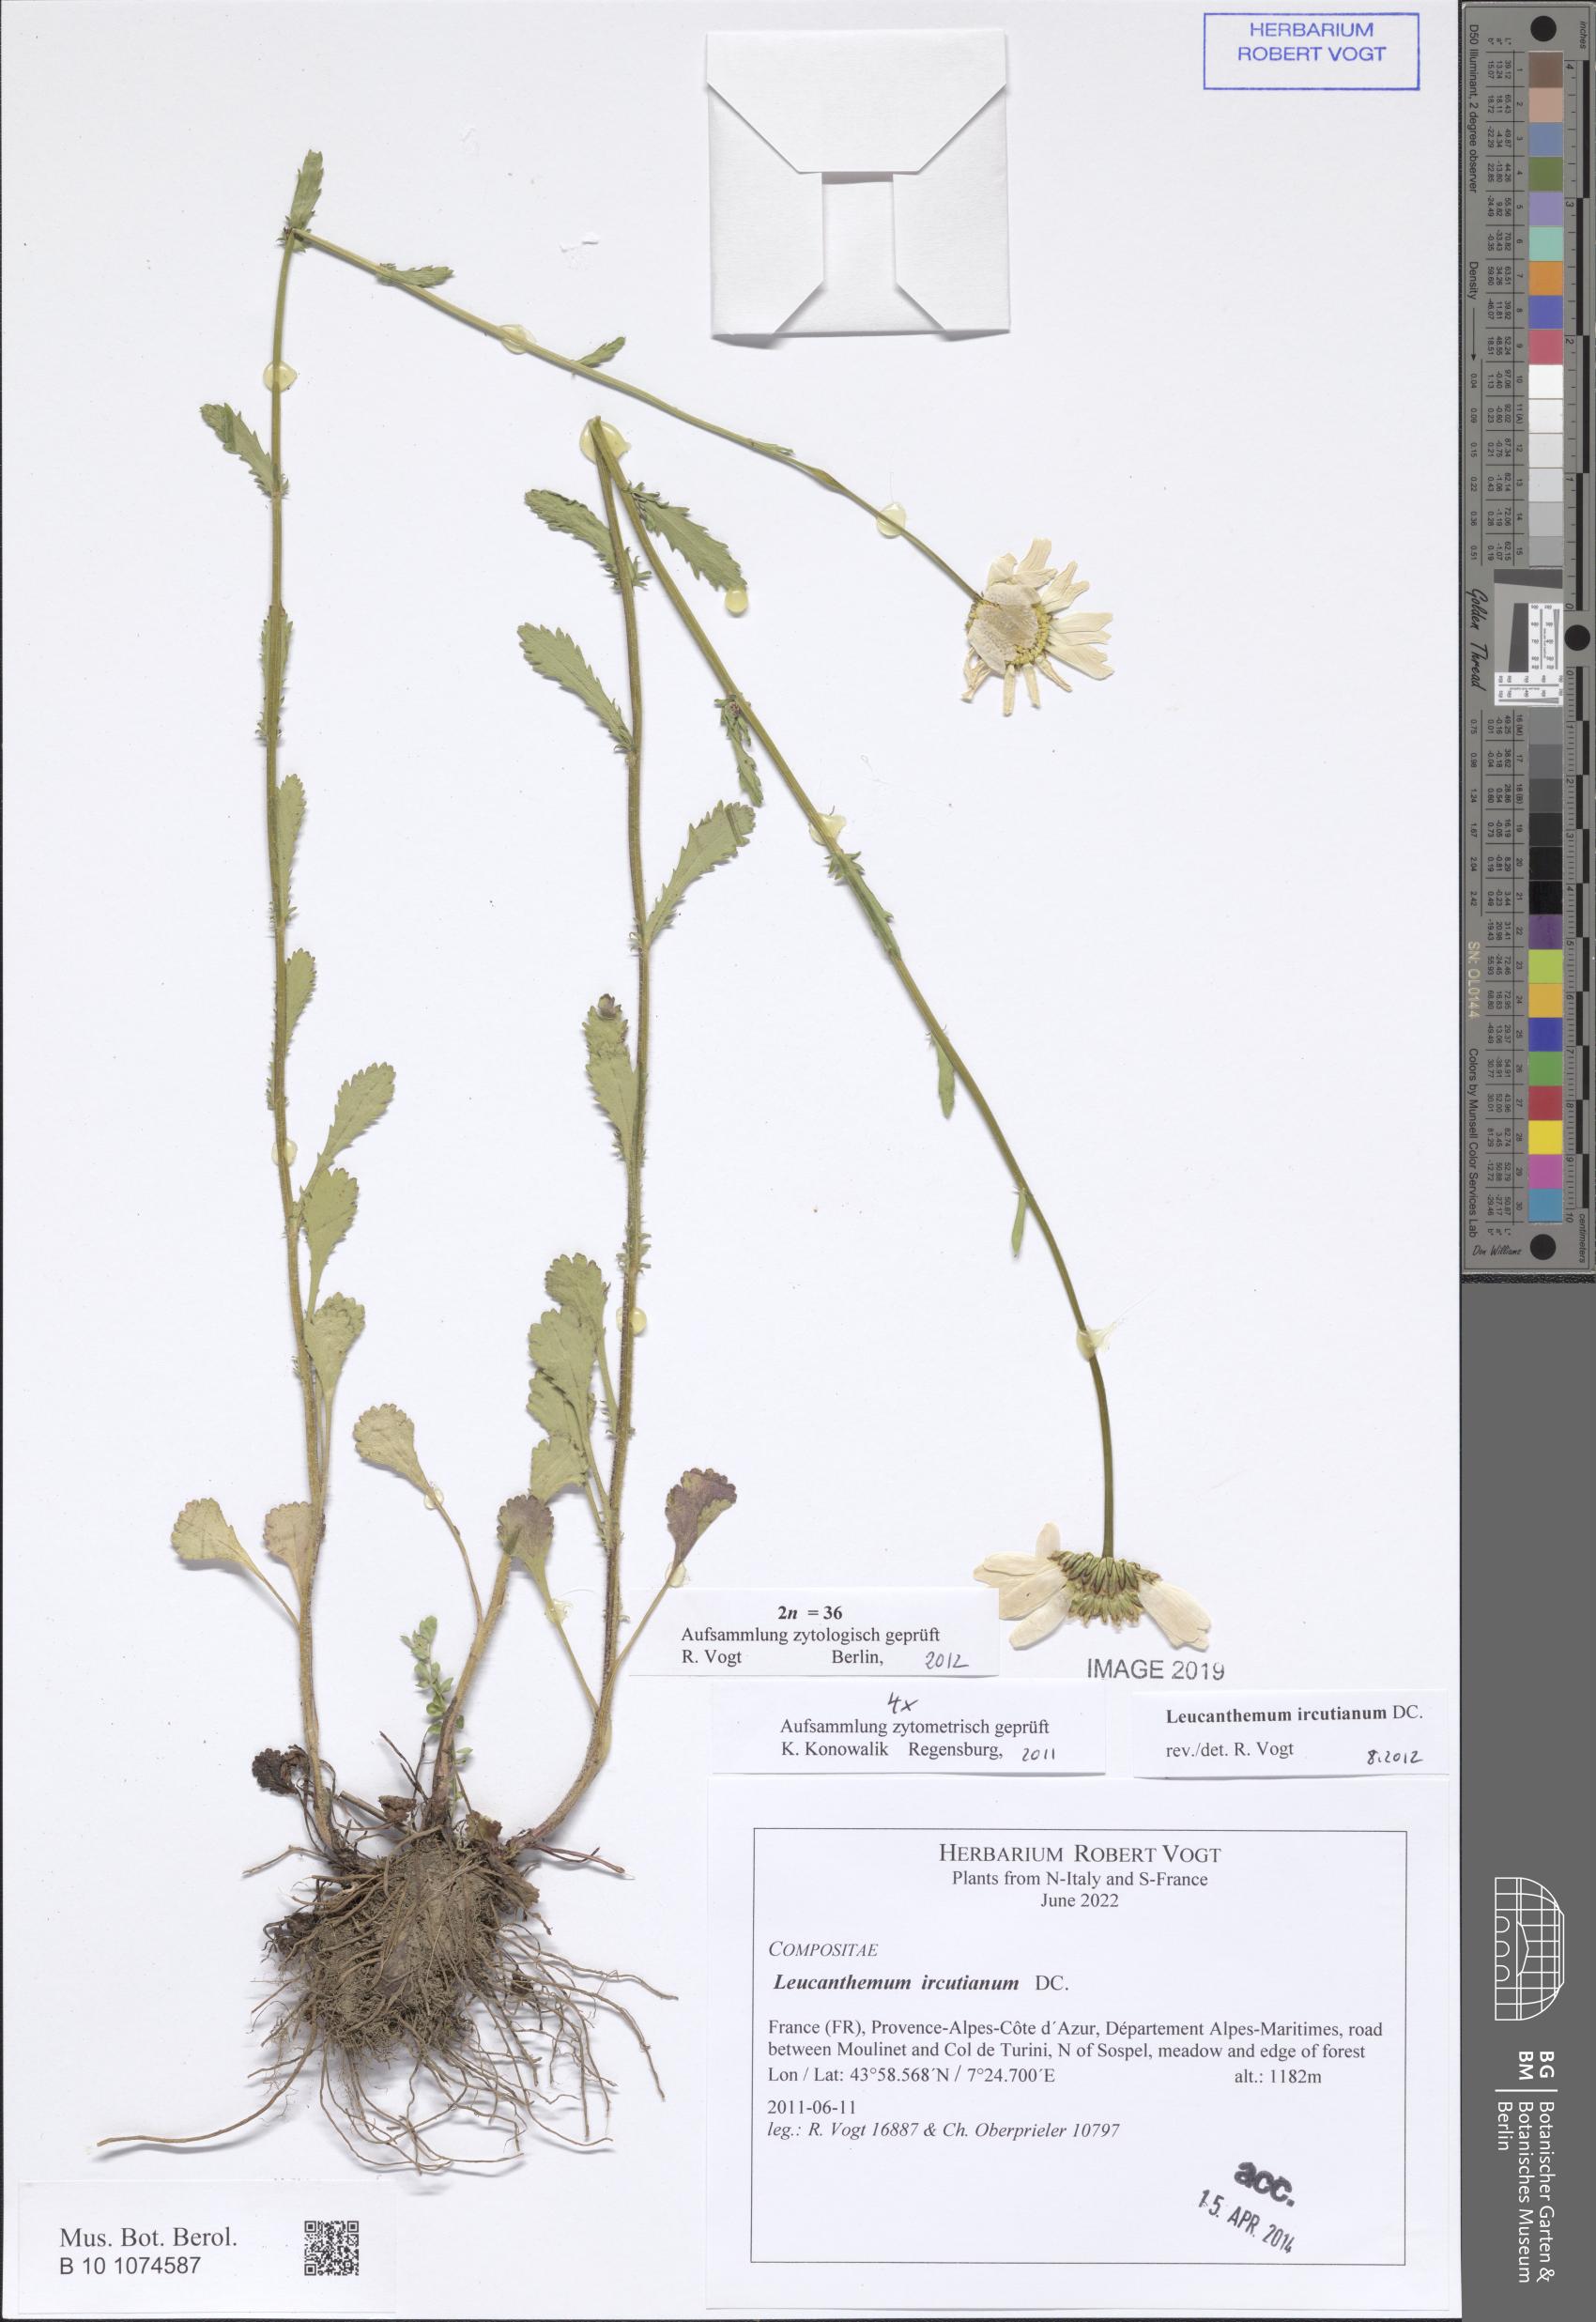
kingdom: Plantae
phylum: Tracheophyta
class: Magnoliopsida
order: Asterales
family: Asteraceae
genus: Leucanthemum
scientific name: Leucanthemum ircutianum
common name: Daisy
